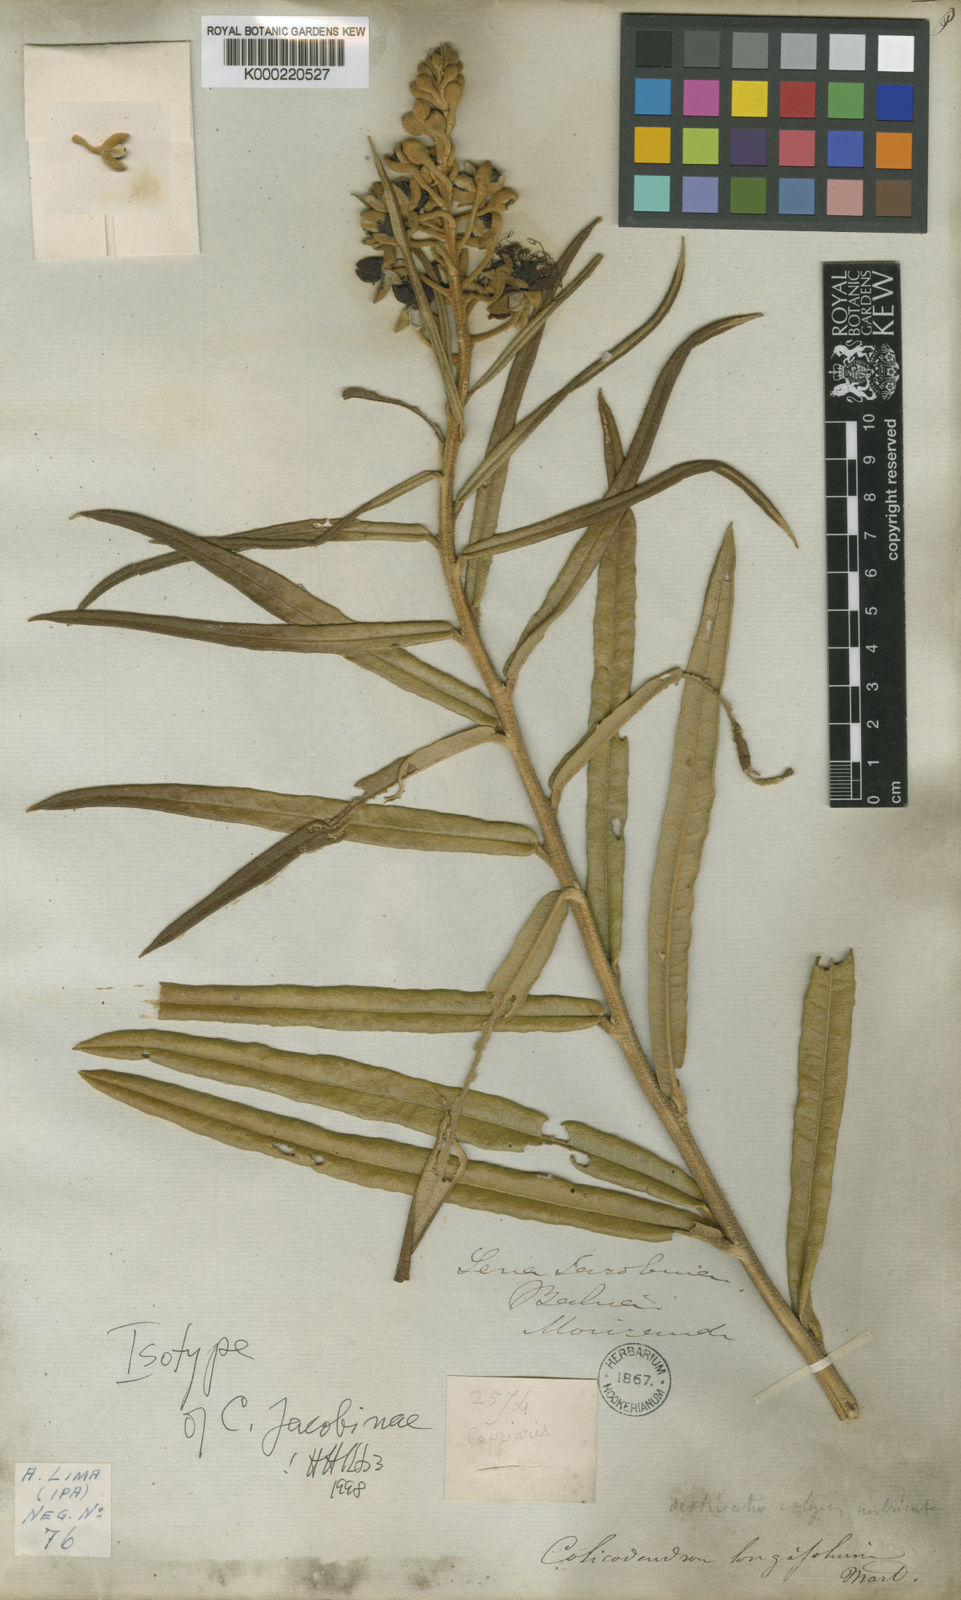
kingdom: Plantae
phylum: Tracheophyta
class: Magnoliopsida
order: Brassicales
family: Capparaceae
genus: Neocalyptrocalyx
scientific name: Neocalyptrocalyx longifolium
